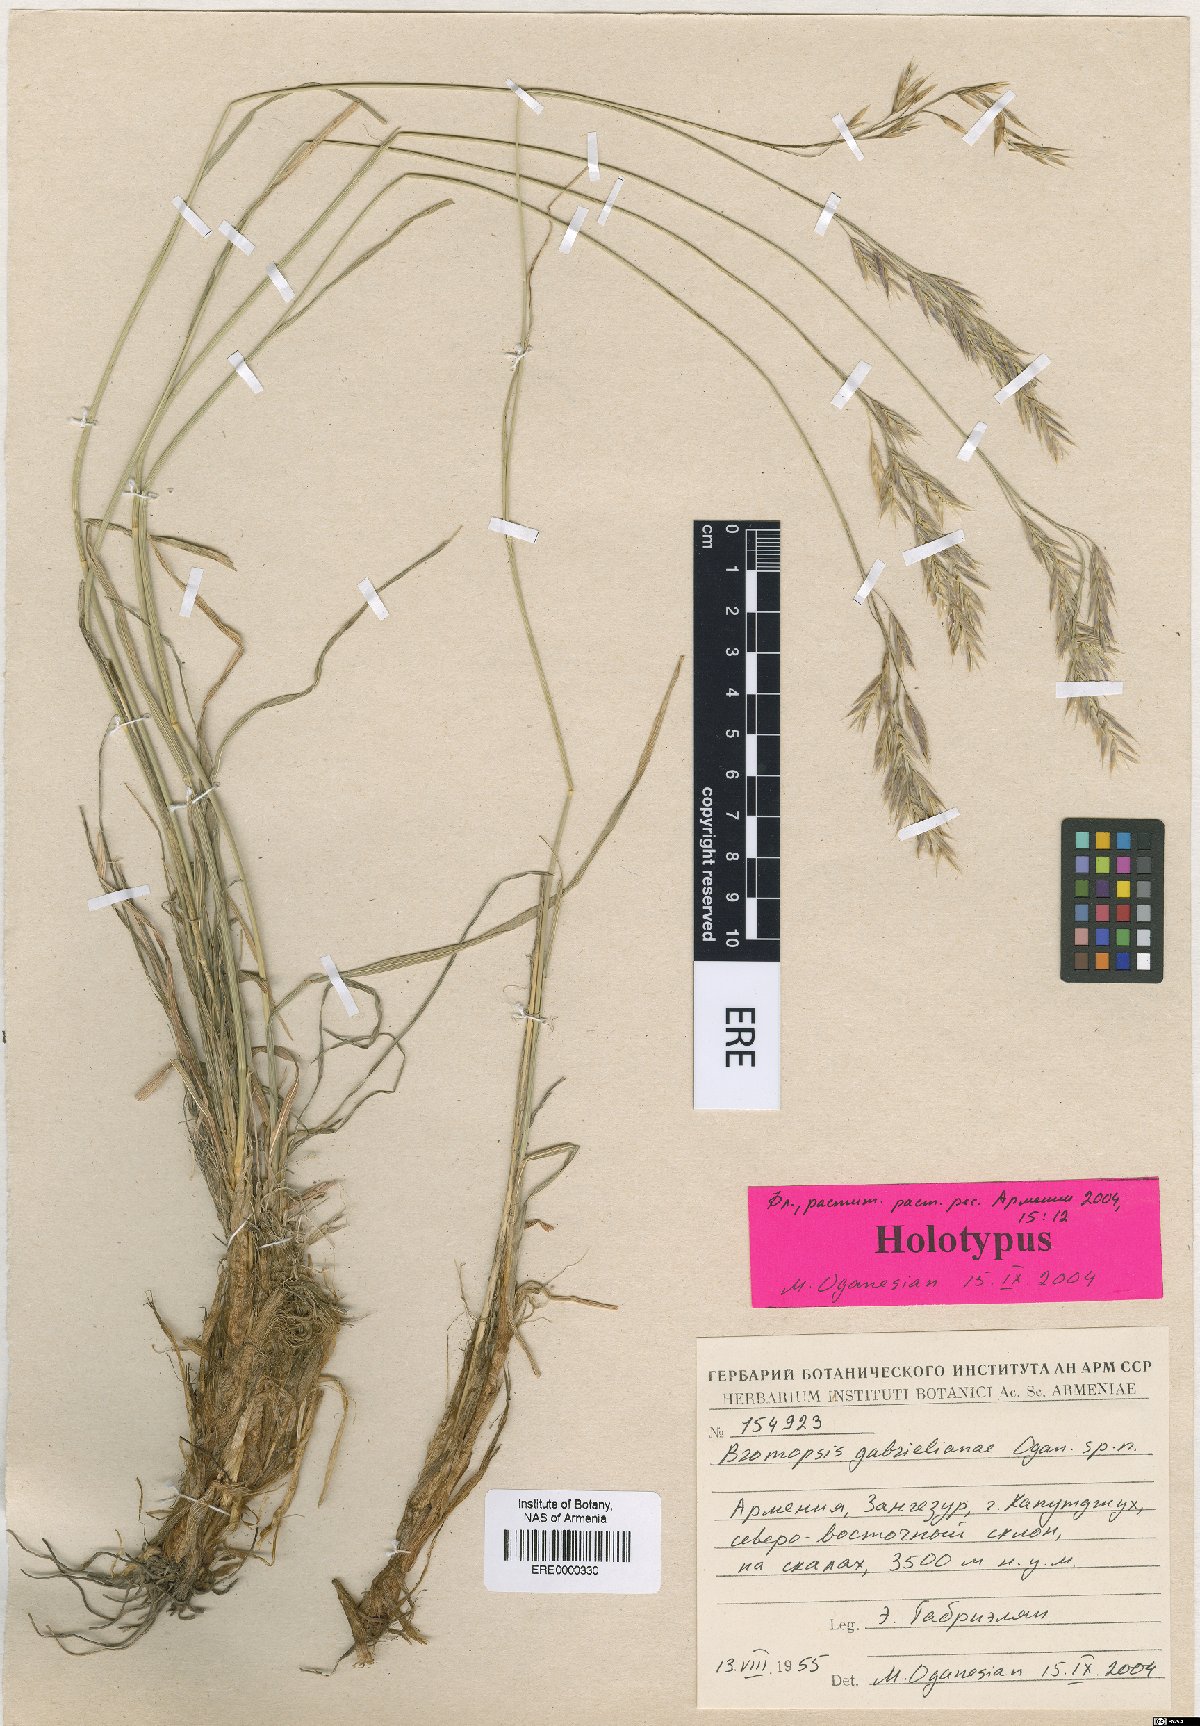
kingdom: Plantae
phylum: Tracheophyta
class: Liliopsida
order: Poales
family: Poaceae
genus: Bromus
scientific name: Bromus tomentosus
